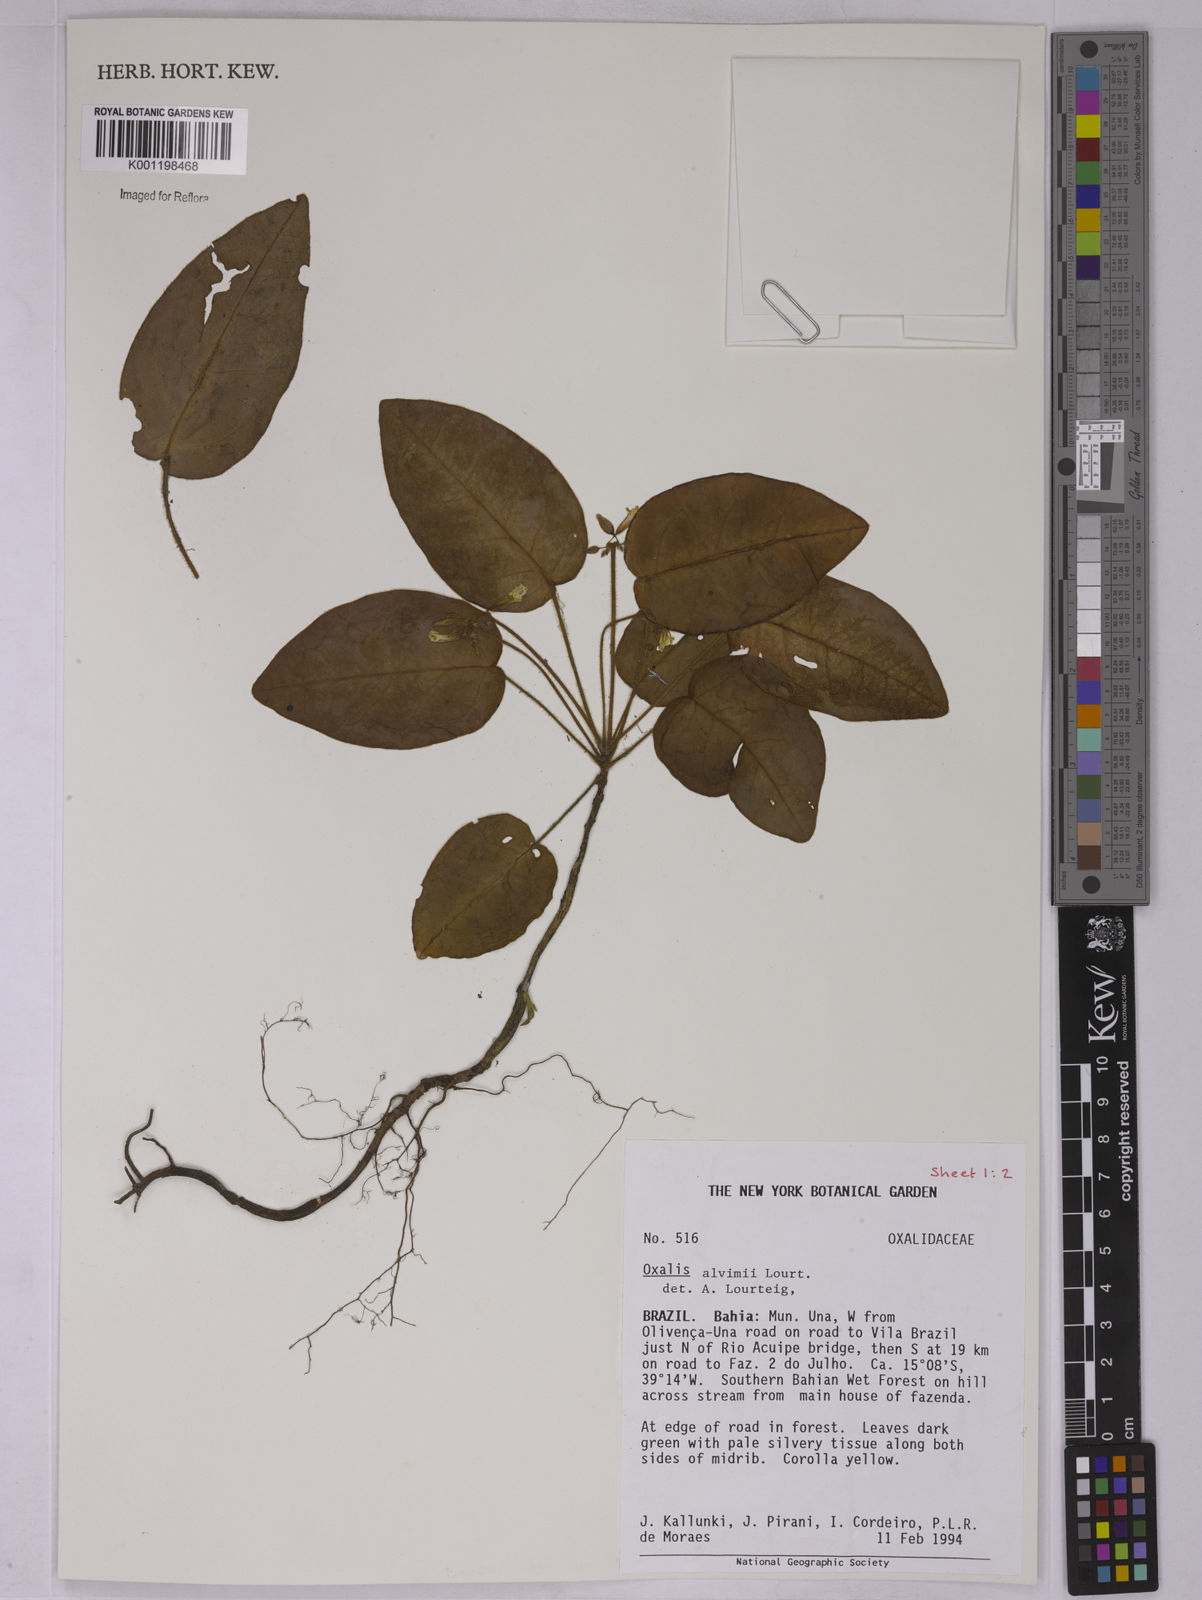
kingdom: Plantae
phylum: Tracheophyta
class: Magnoliopsida
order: Oxalidales
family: Oxalidaceae
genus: Oxalis
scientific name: Oxalis alvimii
